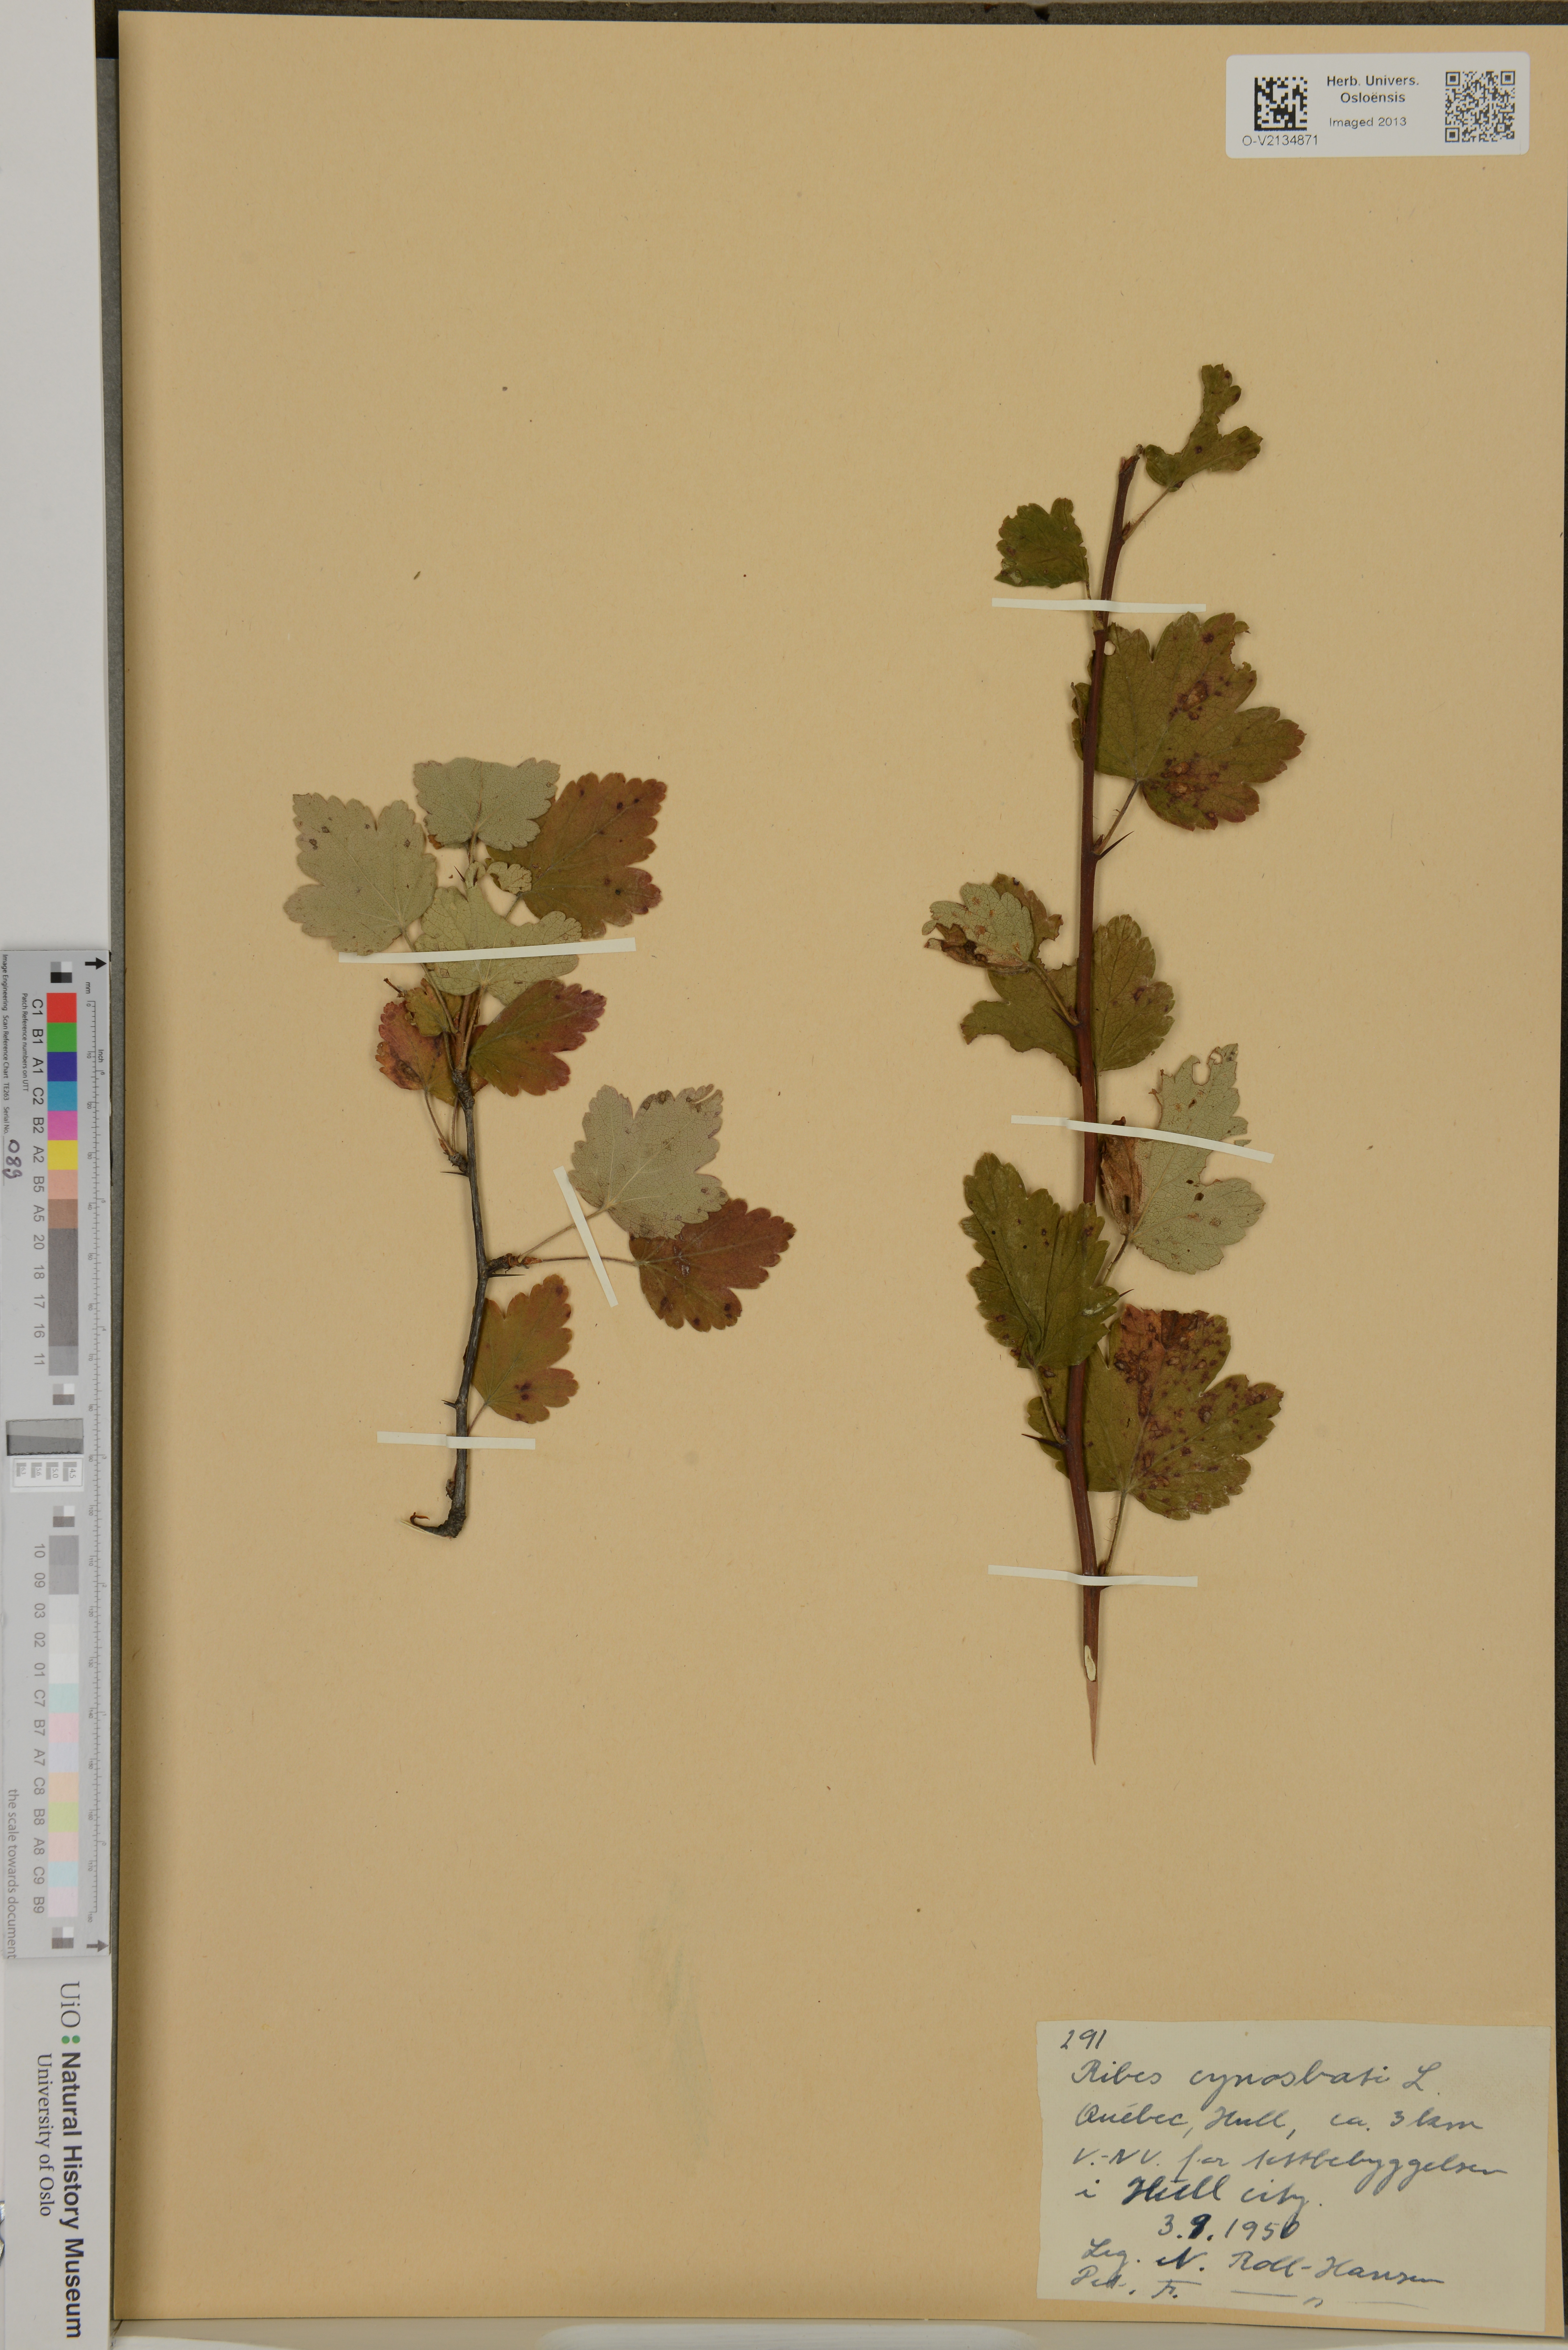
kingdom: Plantae
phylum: Tracheophyta
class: Magnoliopsida
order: Saxifragales
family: Grossulariaceae
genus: Ribes
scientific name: Ribes cynosbati
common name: American gooseberry
